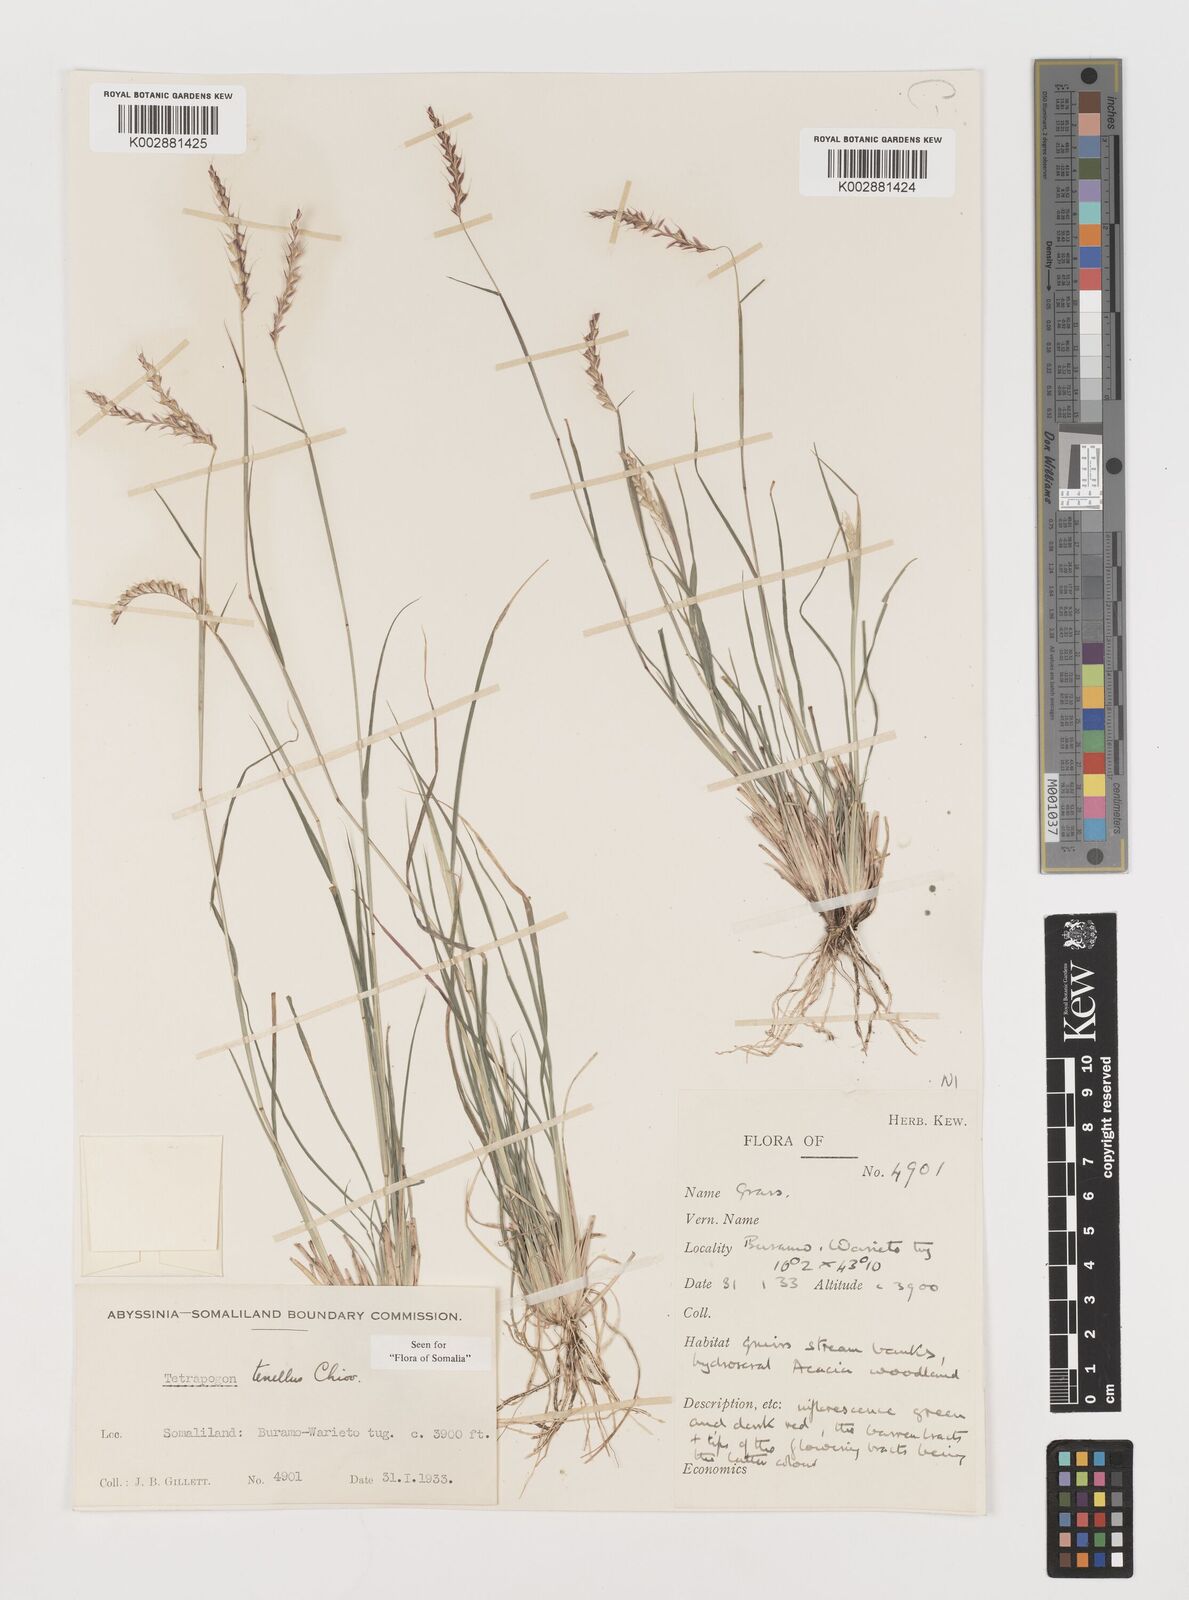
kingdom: Plantae
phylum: Tracheophyta
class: Liliopsida
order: Poales
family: Poaceae
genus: Tetrapogon
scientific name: Tetrapogon tenellus
